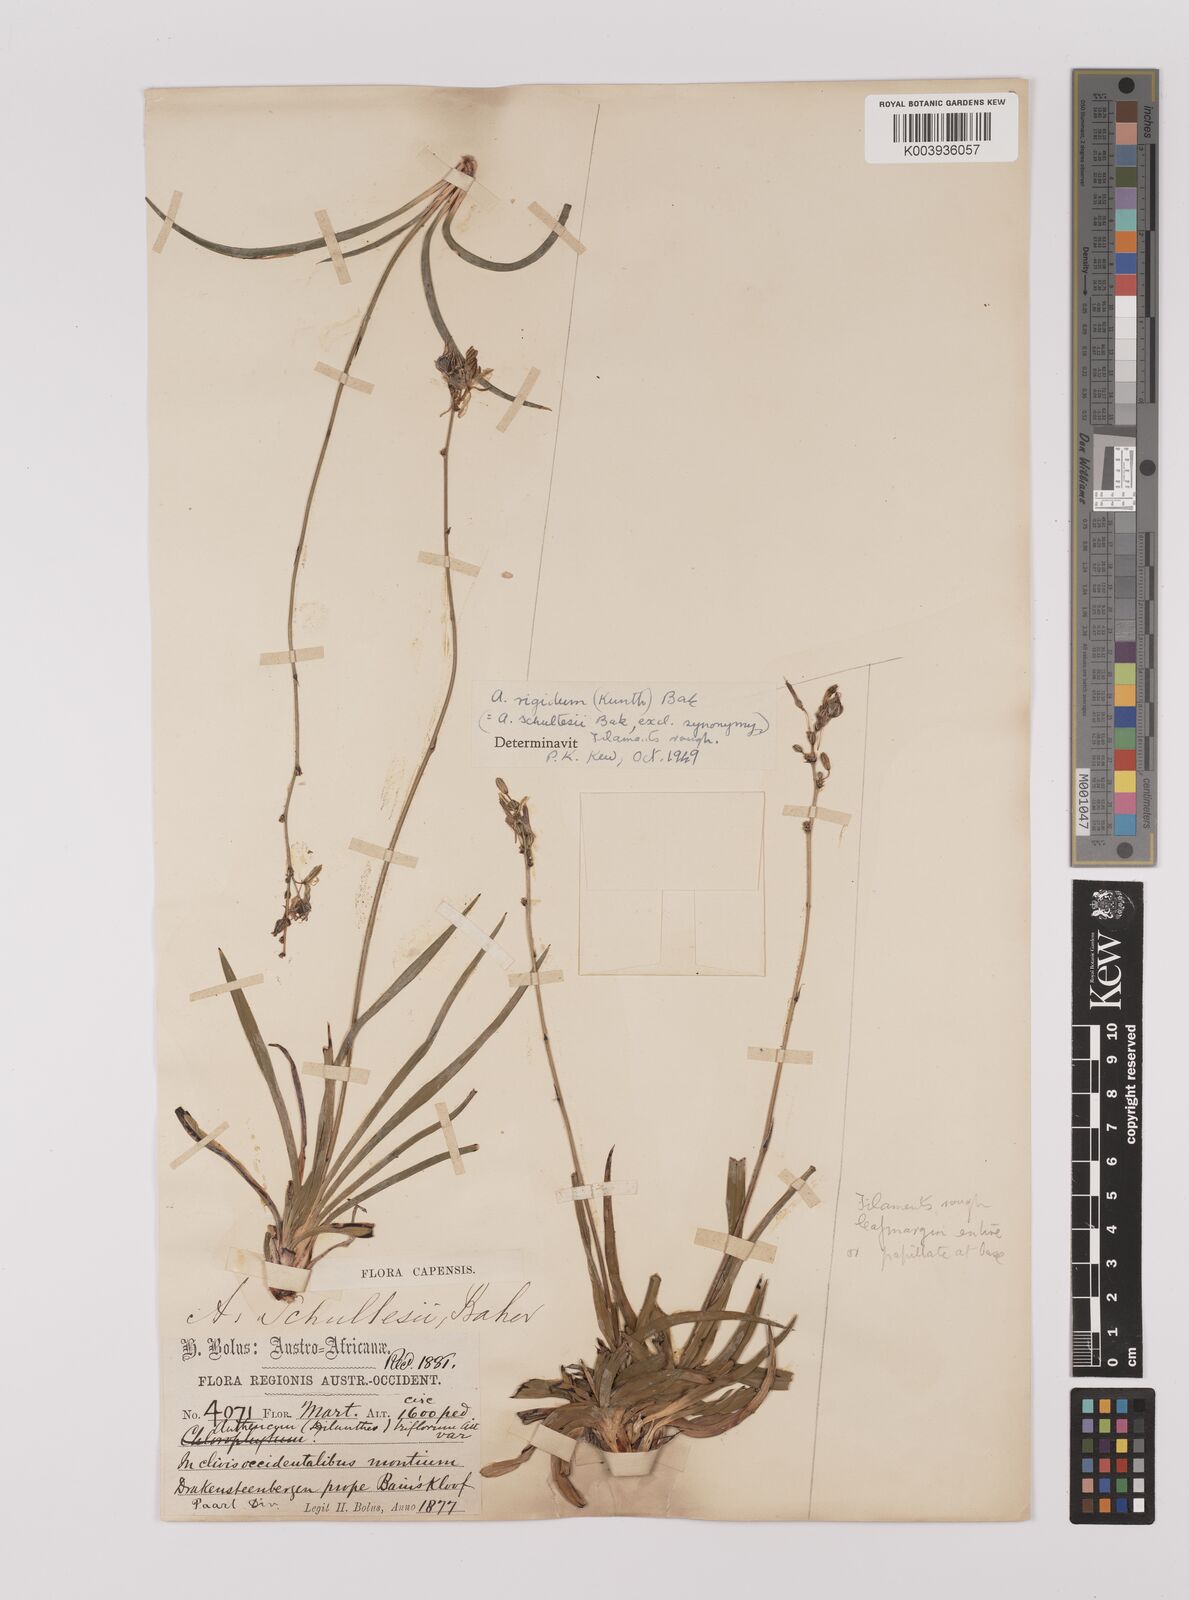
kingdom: Plantae
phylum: Tracheophyta
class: Liliopsida
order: Asparagales
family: Asparagaceae
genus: Chlorophytum
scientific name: Chlorophytum rigidum
